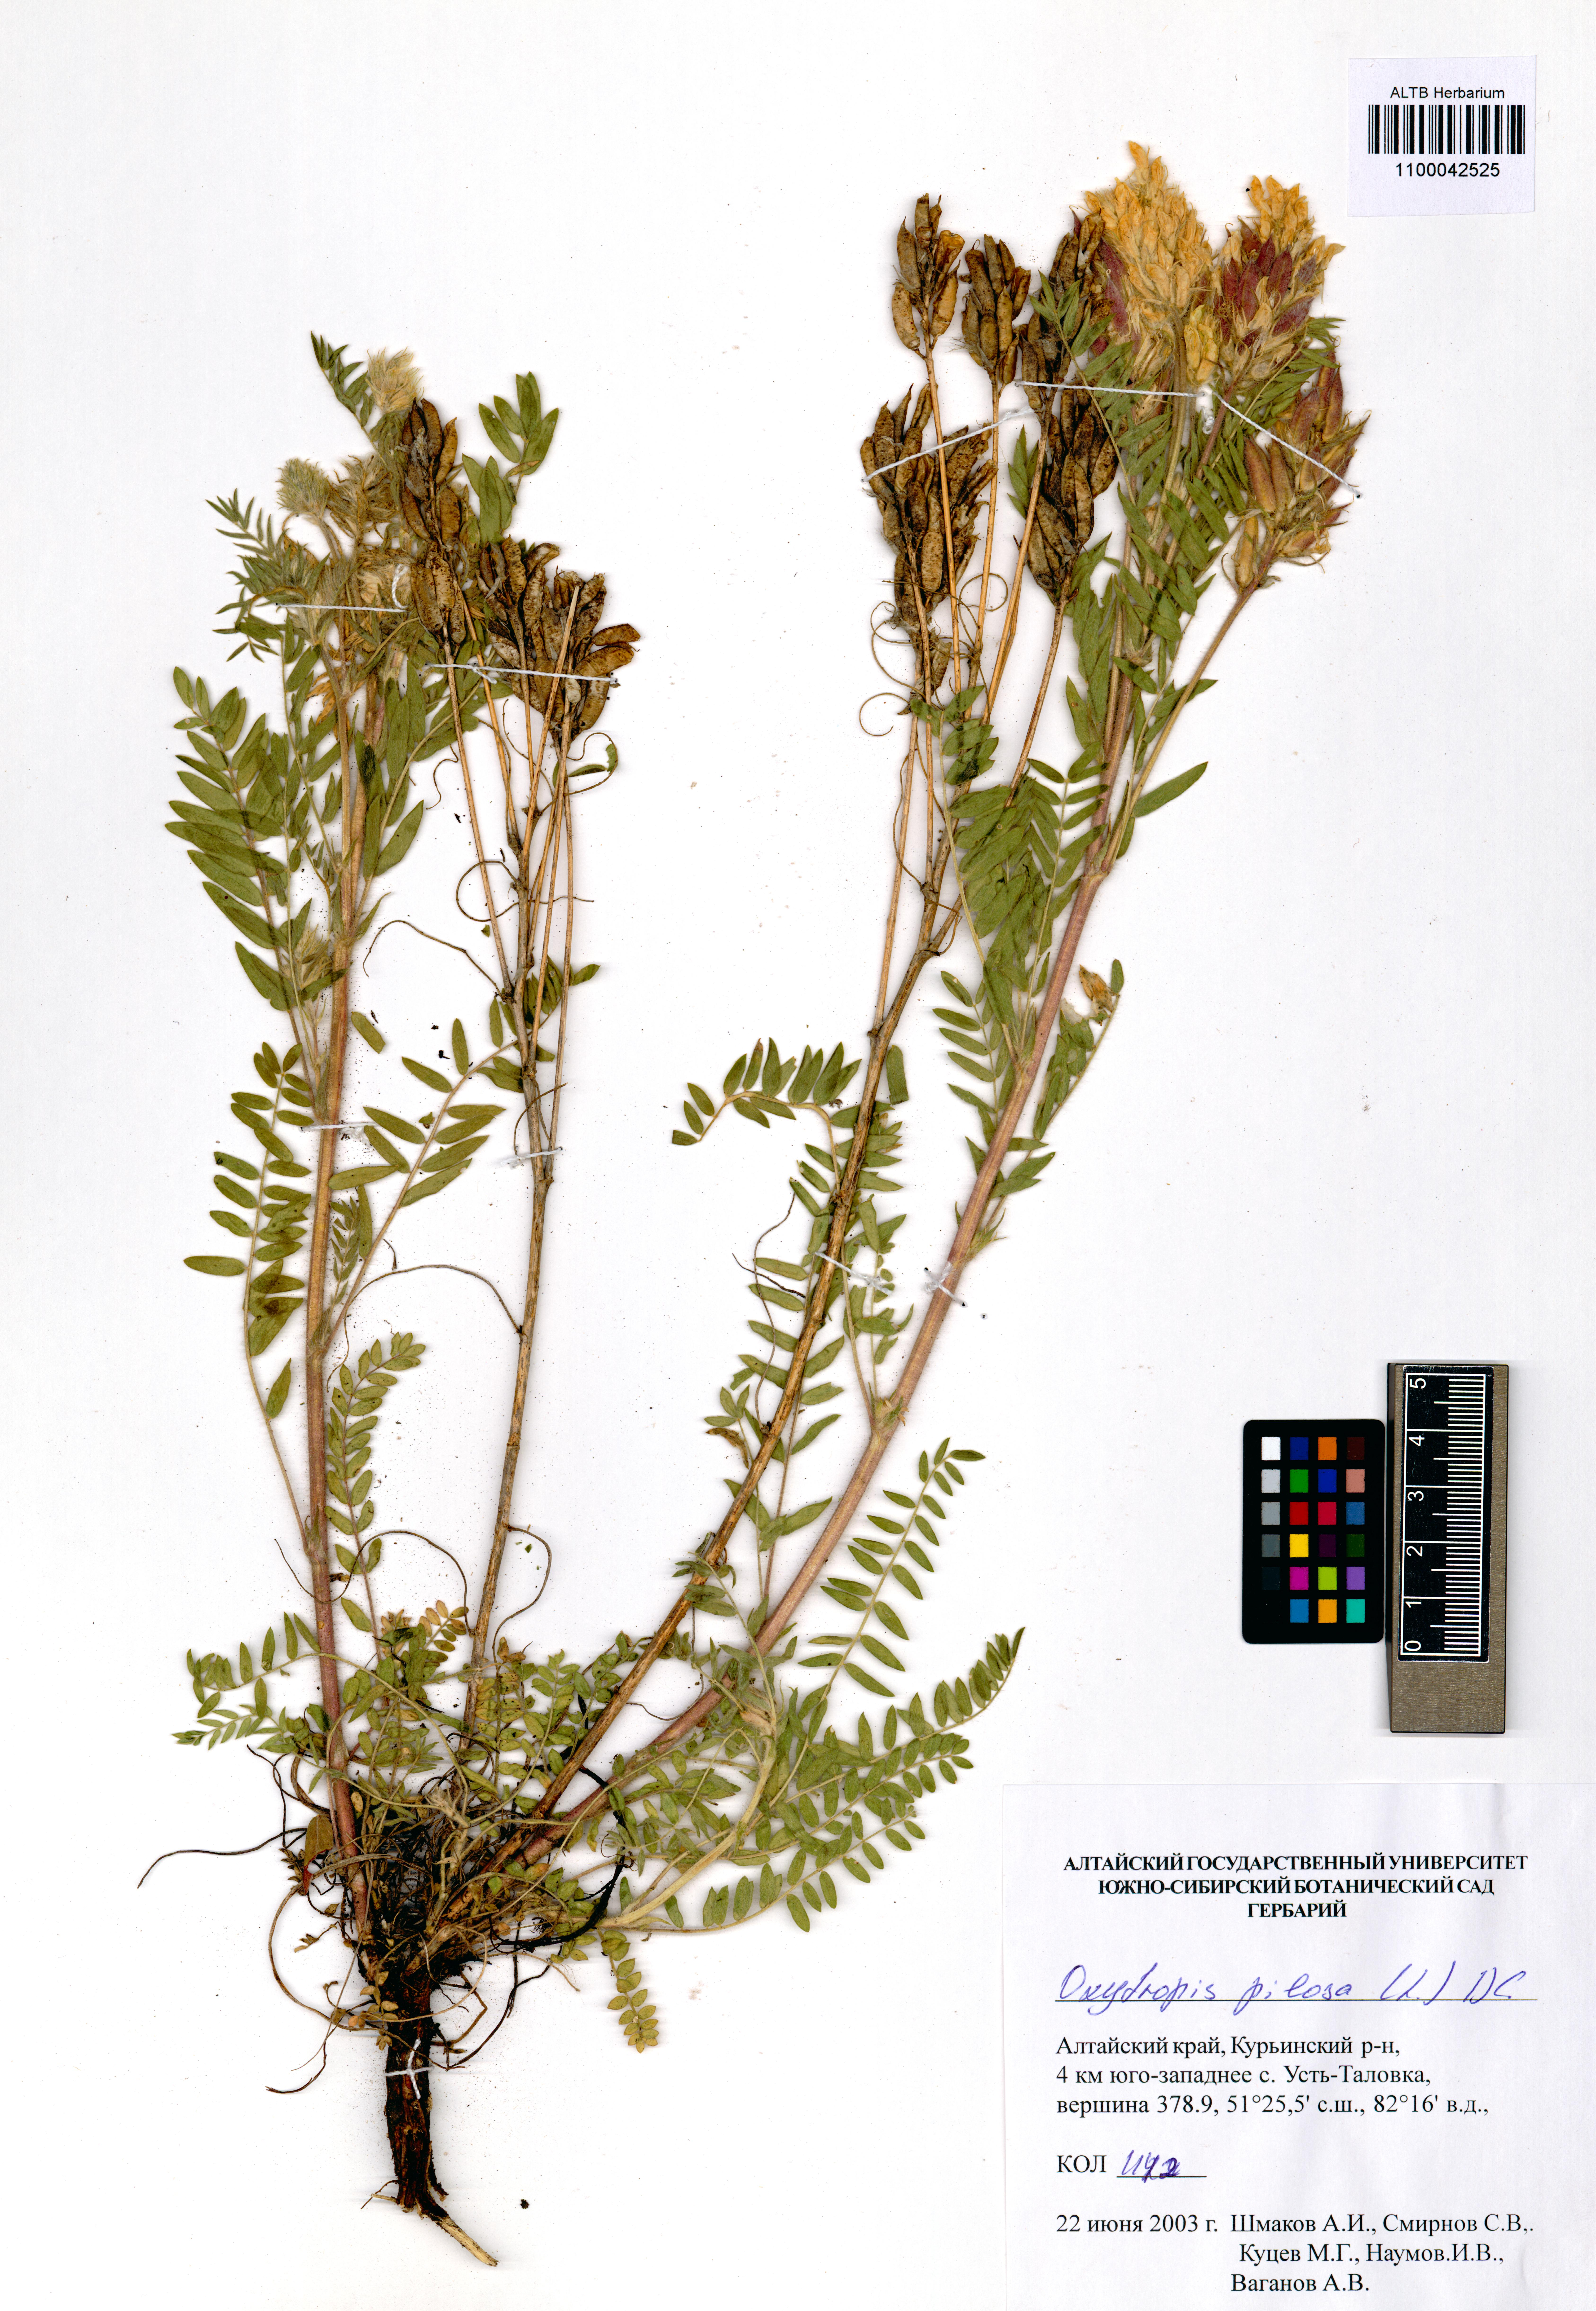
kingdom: Plantae
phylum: Tracheophyta
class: Magnoliopsida
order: Fabales
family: Fabaceae
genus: Oxytropis
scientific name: Oxytropis pilosa
